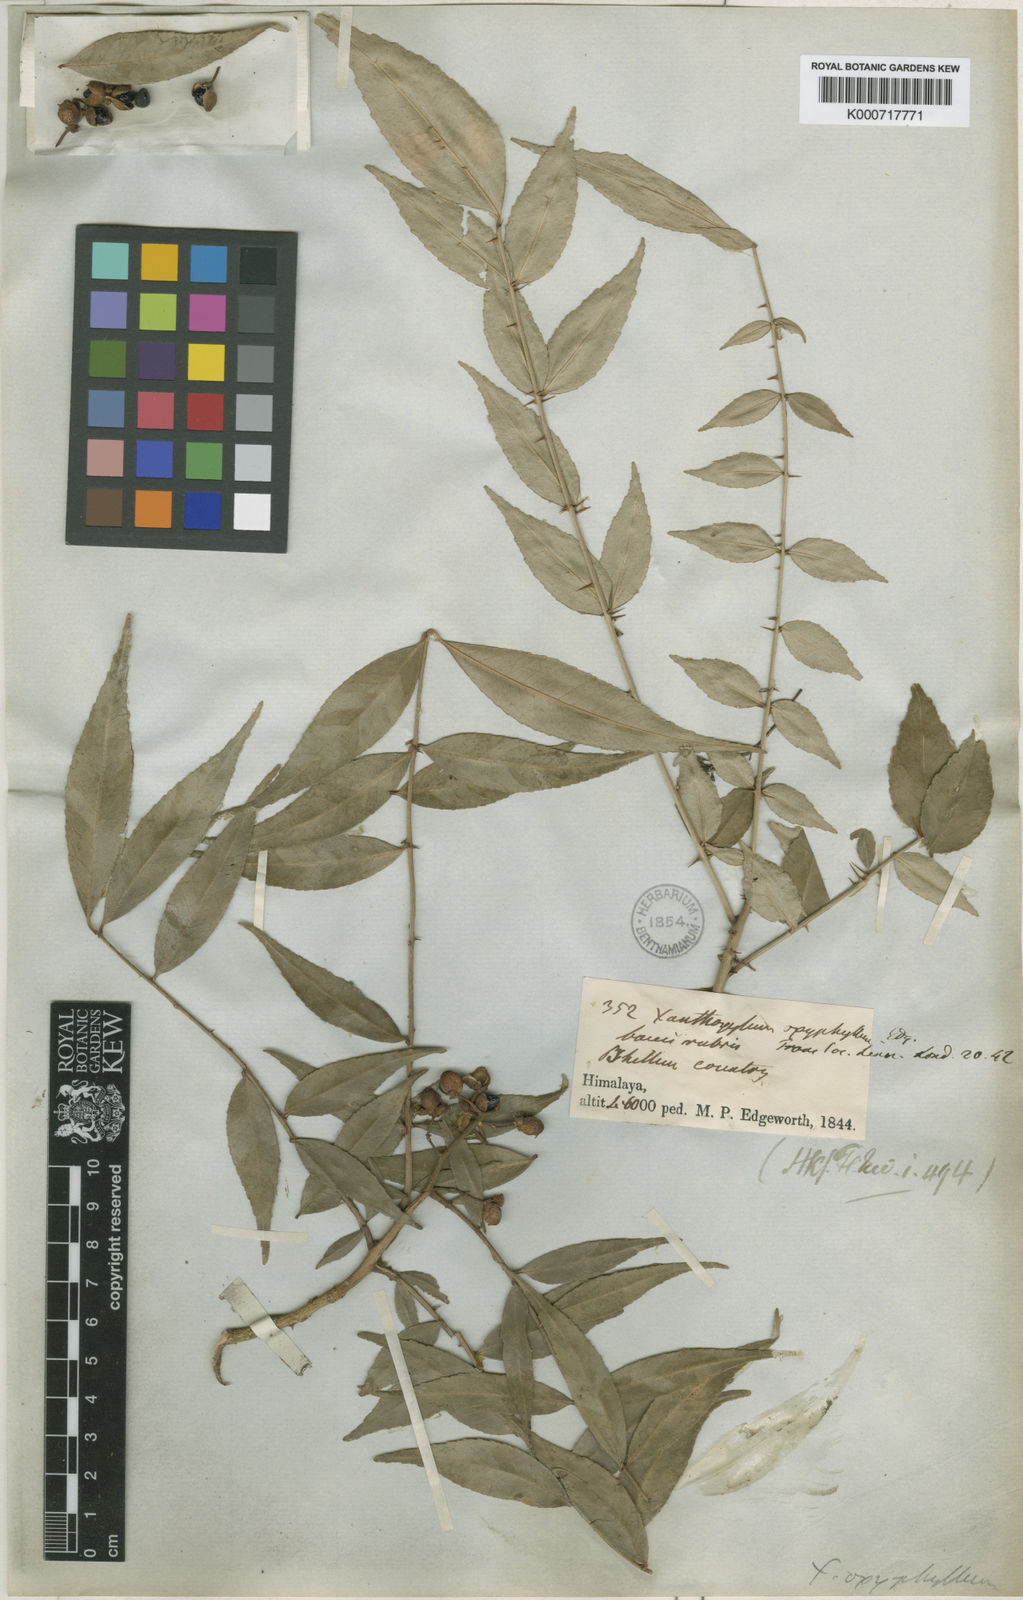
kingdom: Plantae
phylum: Tracheophyta
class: Magnoliopsida
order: Sapindales
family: Rutaceae
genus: Zanthoxylum
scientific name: Zanthoxylum oxyphyllum
